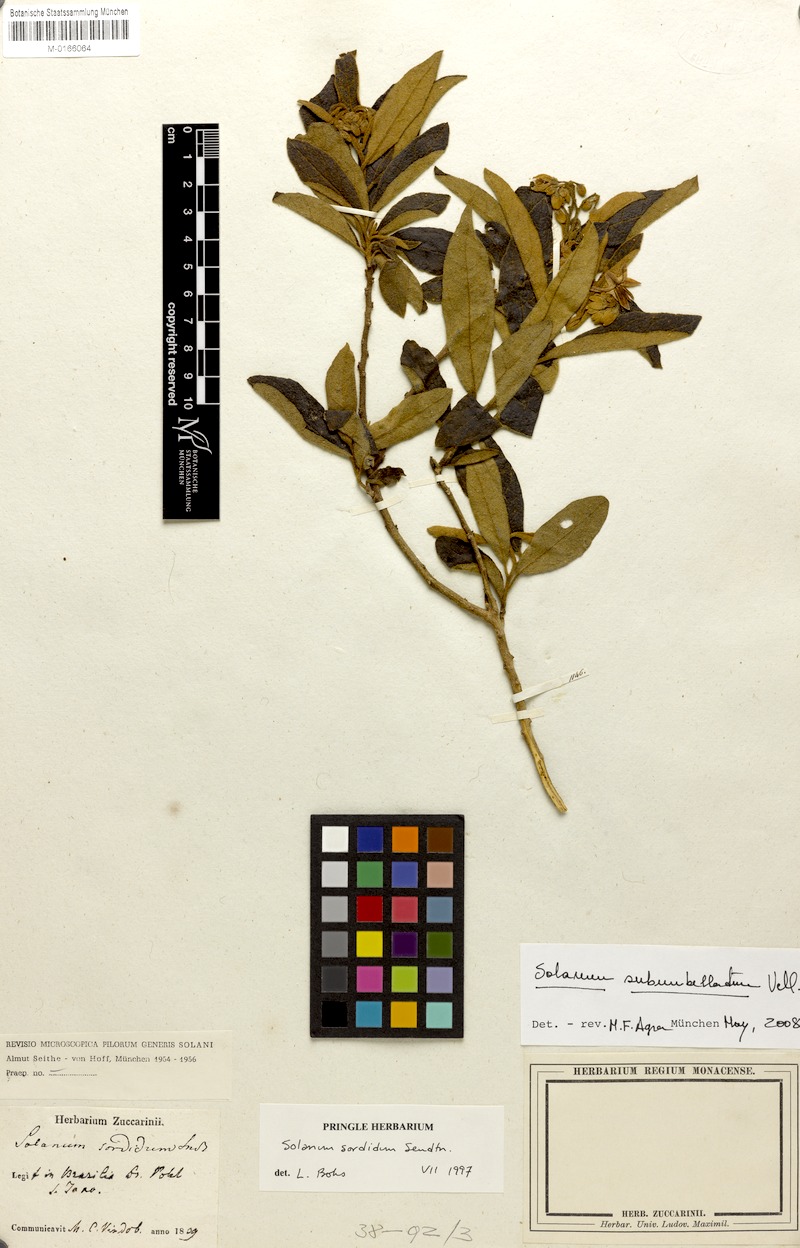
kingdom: Plantae
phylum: Tracheophyta
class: Magnoliopsida
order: Solanales
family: Solanaceae
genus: Solanum
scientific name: Solanum subumbellatum
